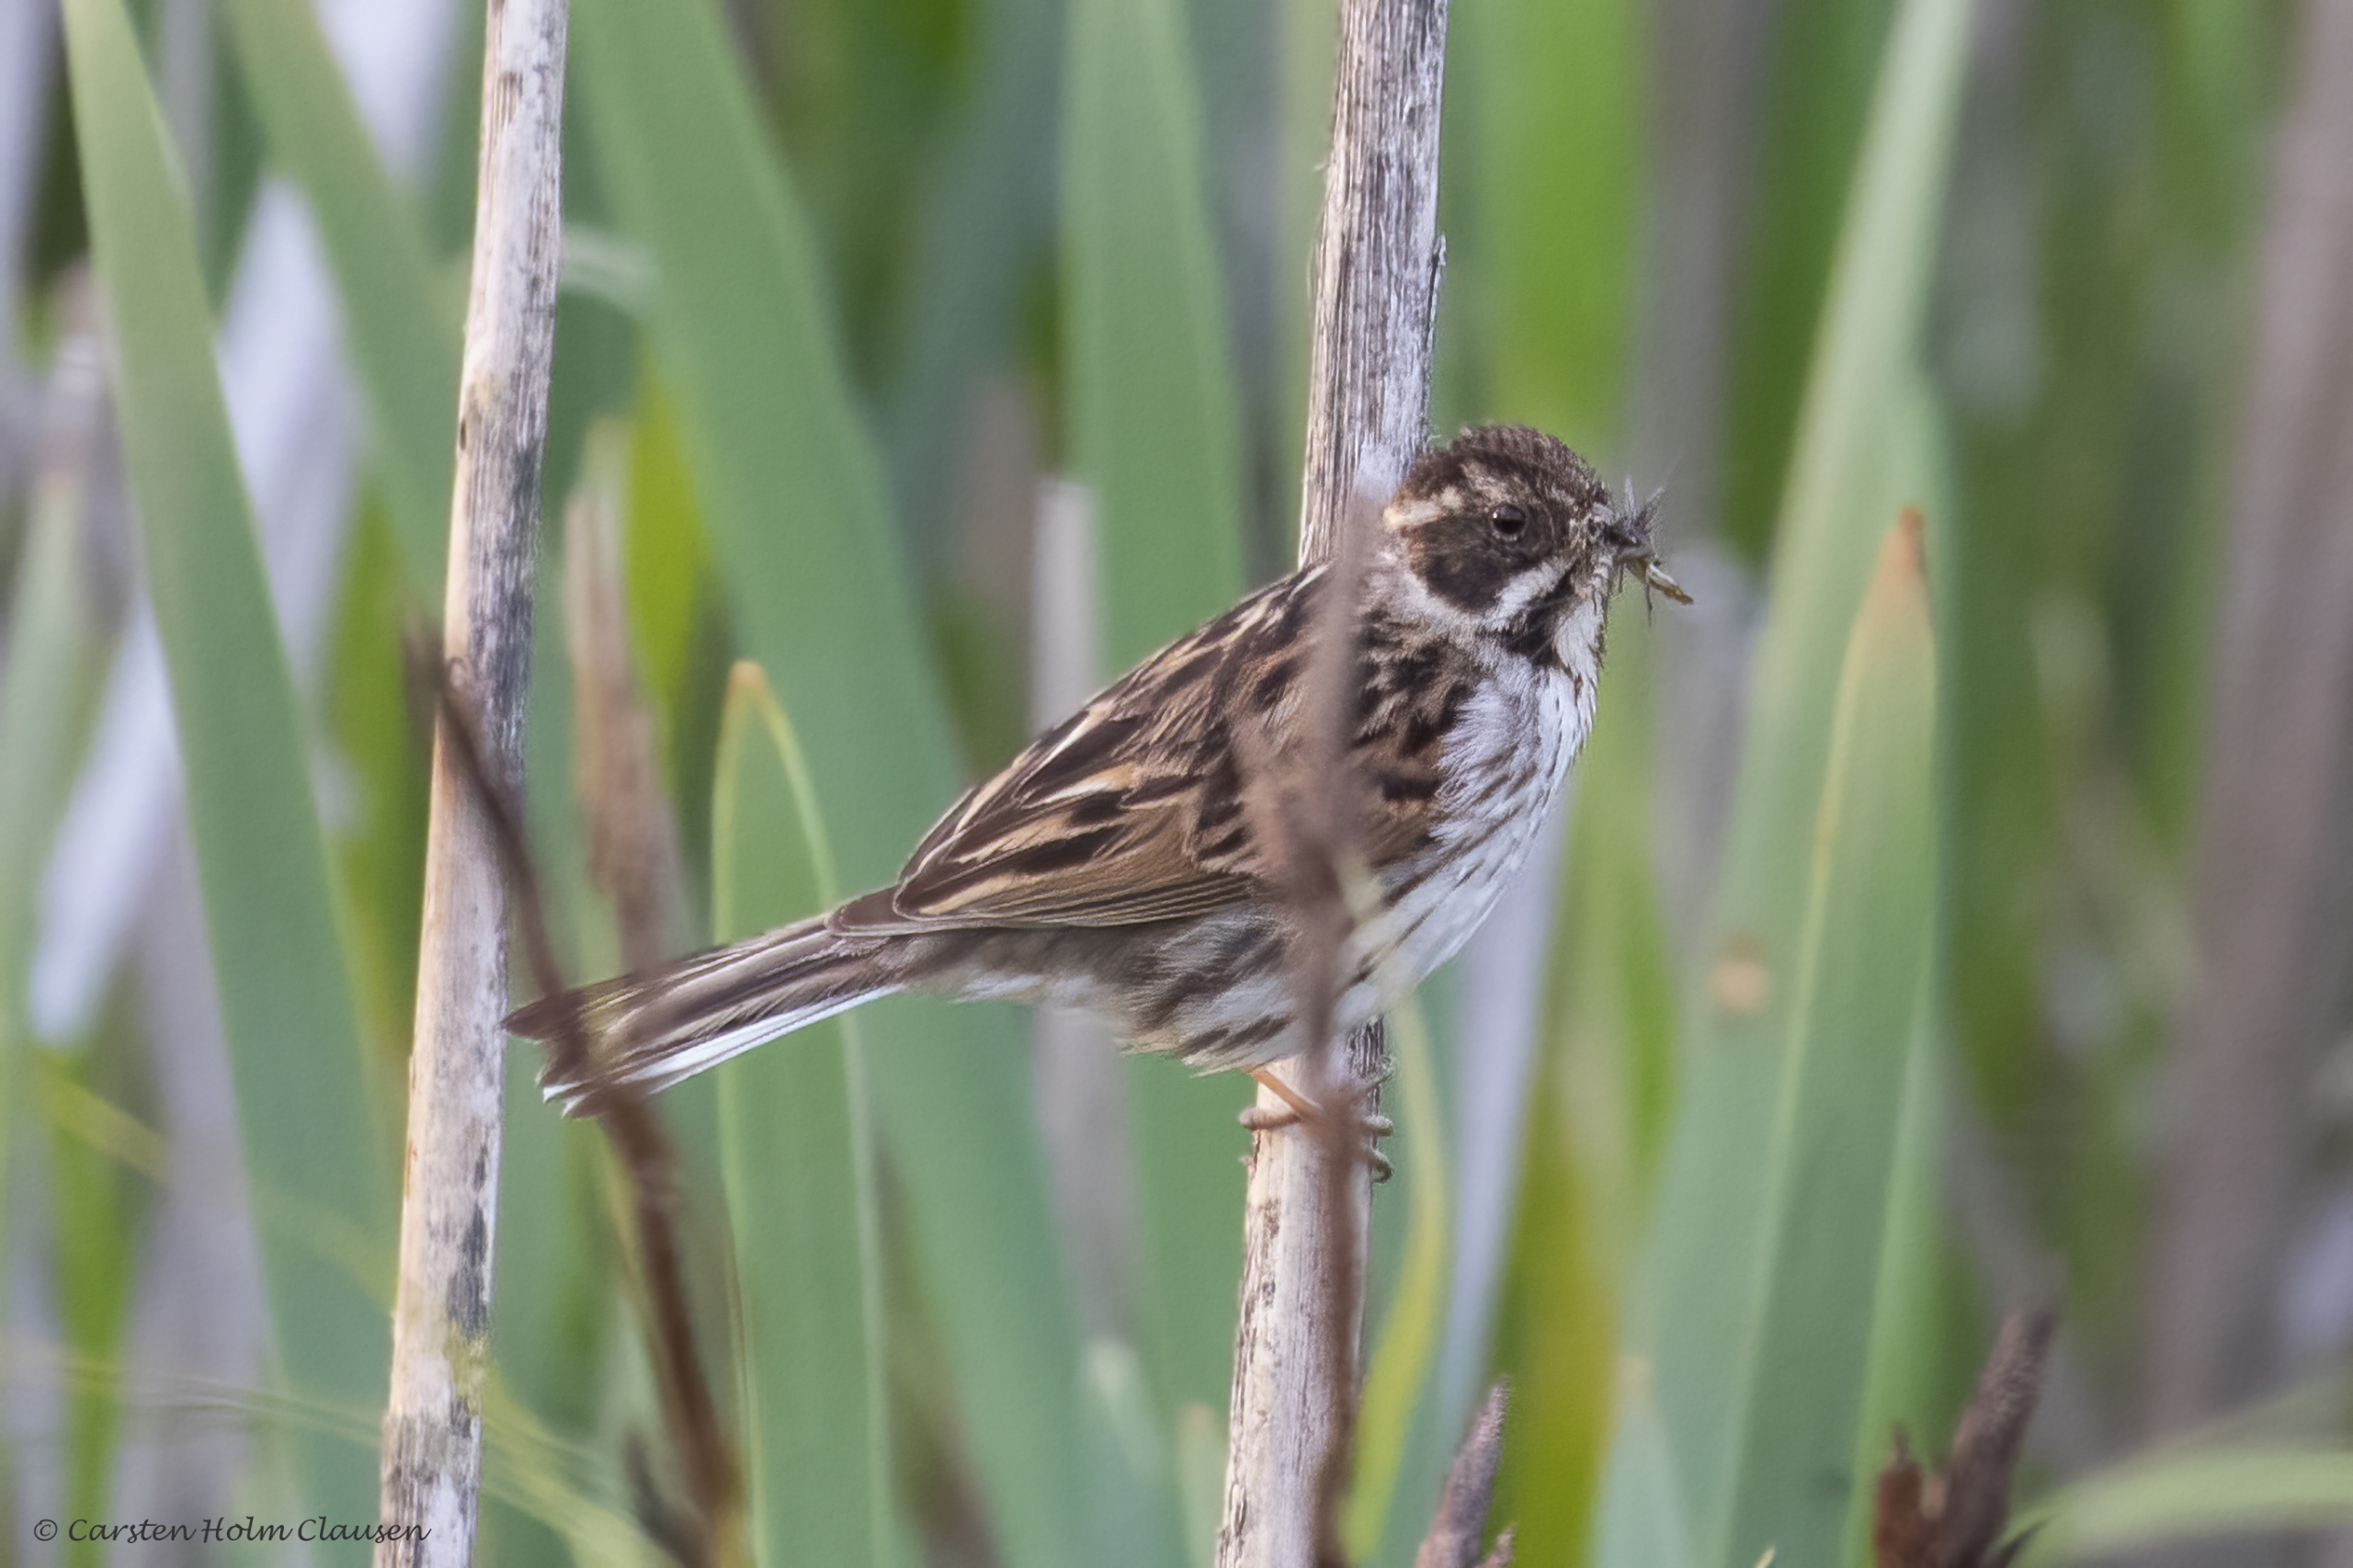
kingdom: Animalia
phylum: Chordata
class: Aves
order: Passeriformes
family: Emberizidae
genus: Emberiza
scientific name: Emberiza schoeniclus
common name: Rørspurv
